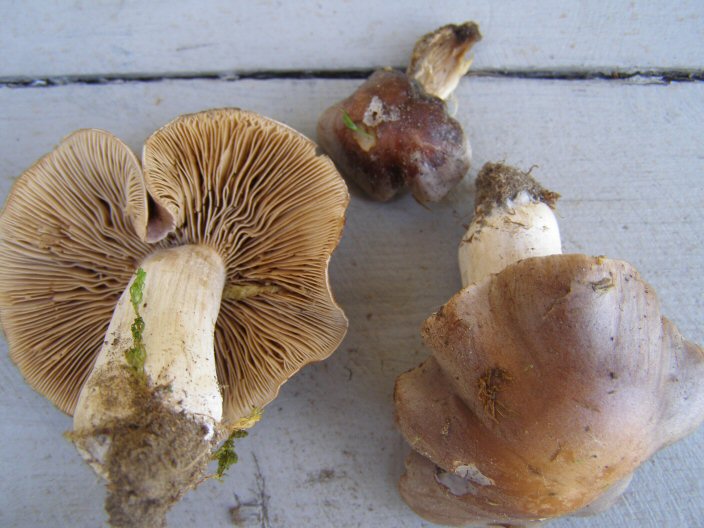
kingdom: Fungi
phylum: Basidiomycota
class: Agaricomycetes
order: Agaricales
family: Hymenogastraceae
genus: Hebeloma
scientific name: Hebeloma theobrominum
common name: rødbrun tåreblad
